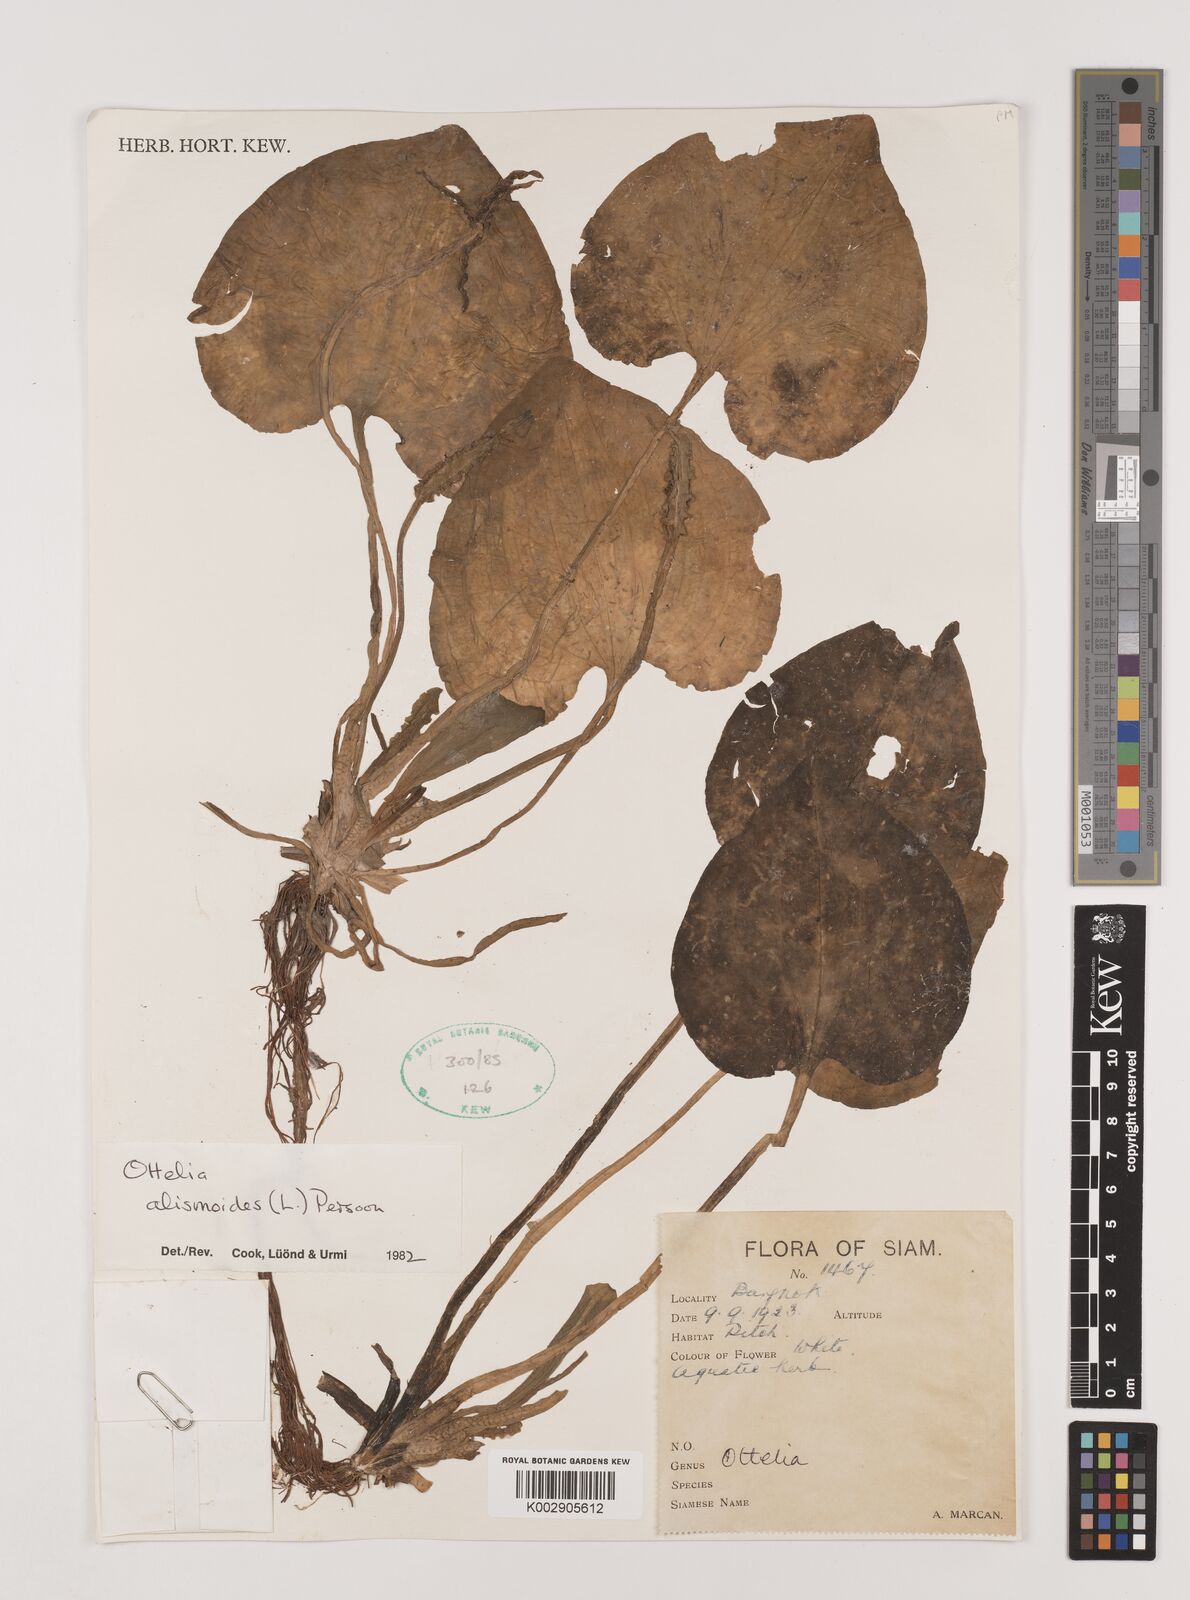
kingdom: Plantae
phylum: Tracheophyta
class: Liliopsida
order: Alismatales
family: Hydrocharitaceae
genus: Ottelia
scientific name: Ottelia alismoides
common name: Duck-lettuce
